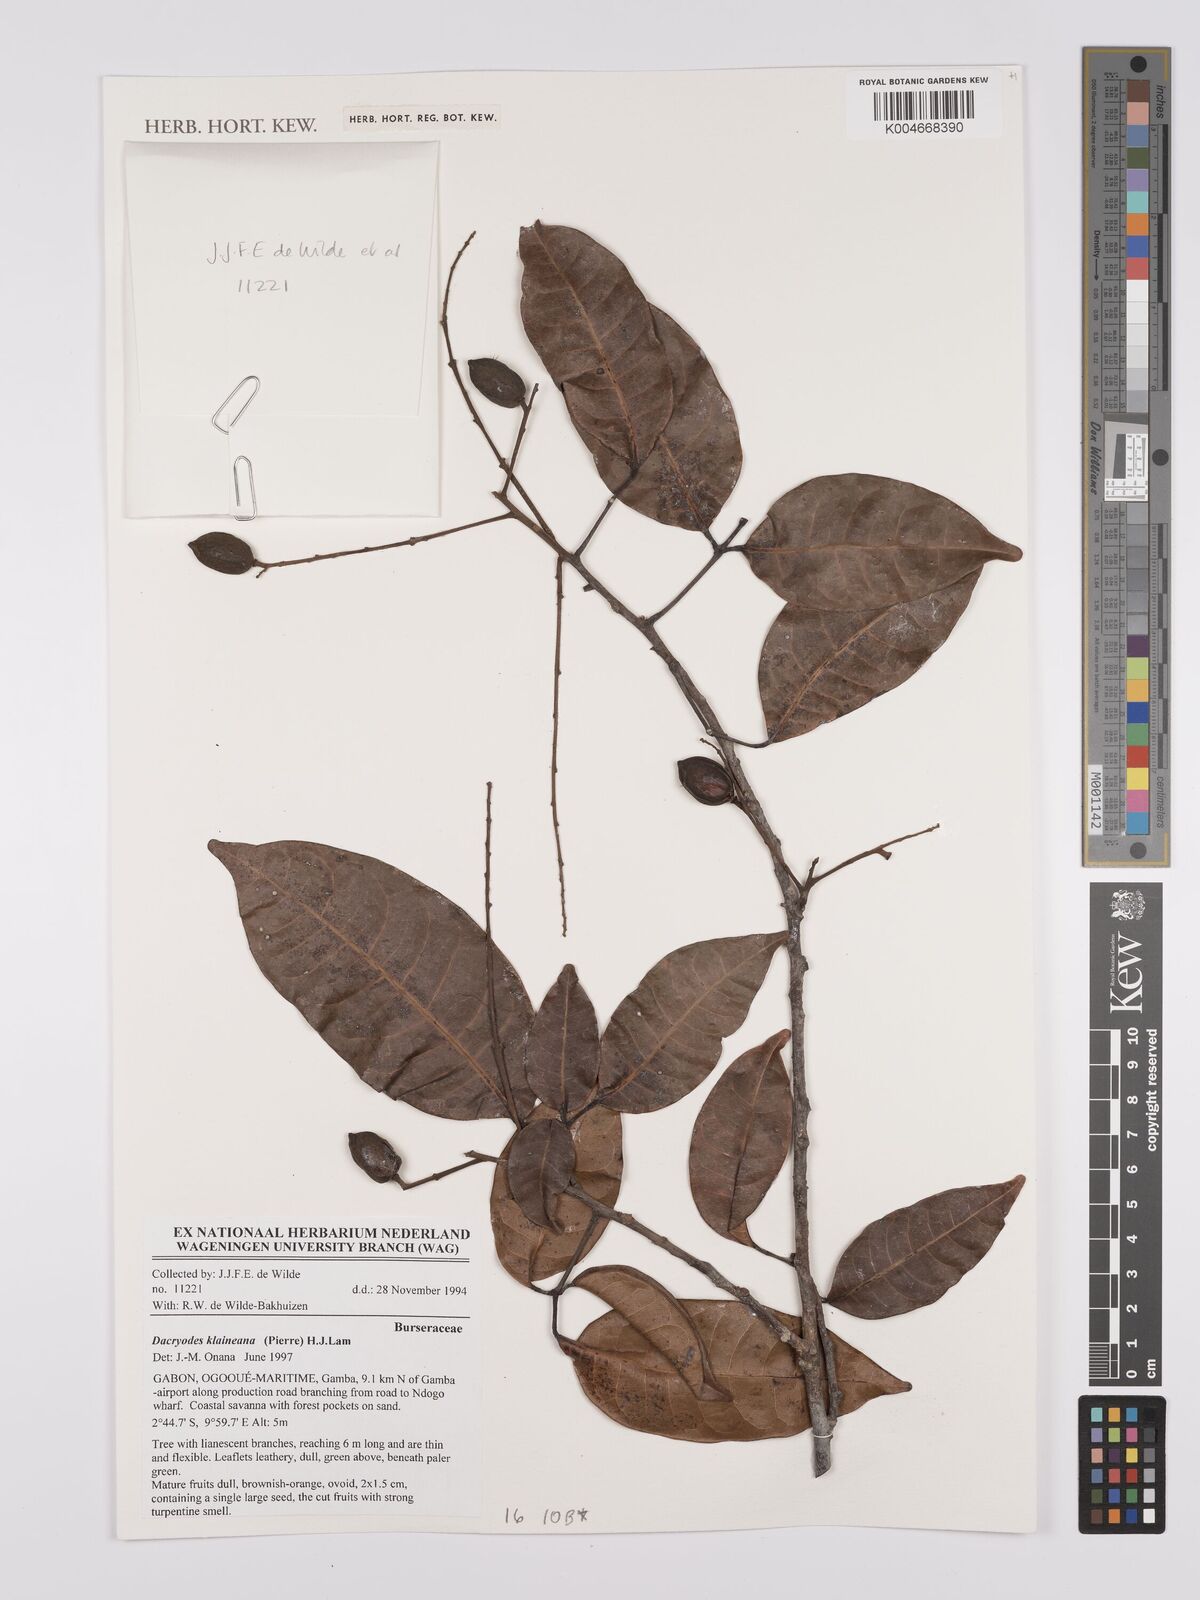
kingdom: Plantae
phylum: Tracheophyta
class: Magnoliopsida
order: Sapindales
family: Burseraceae
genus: Pachylobus
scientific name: Pachylobus klaineana
